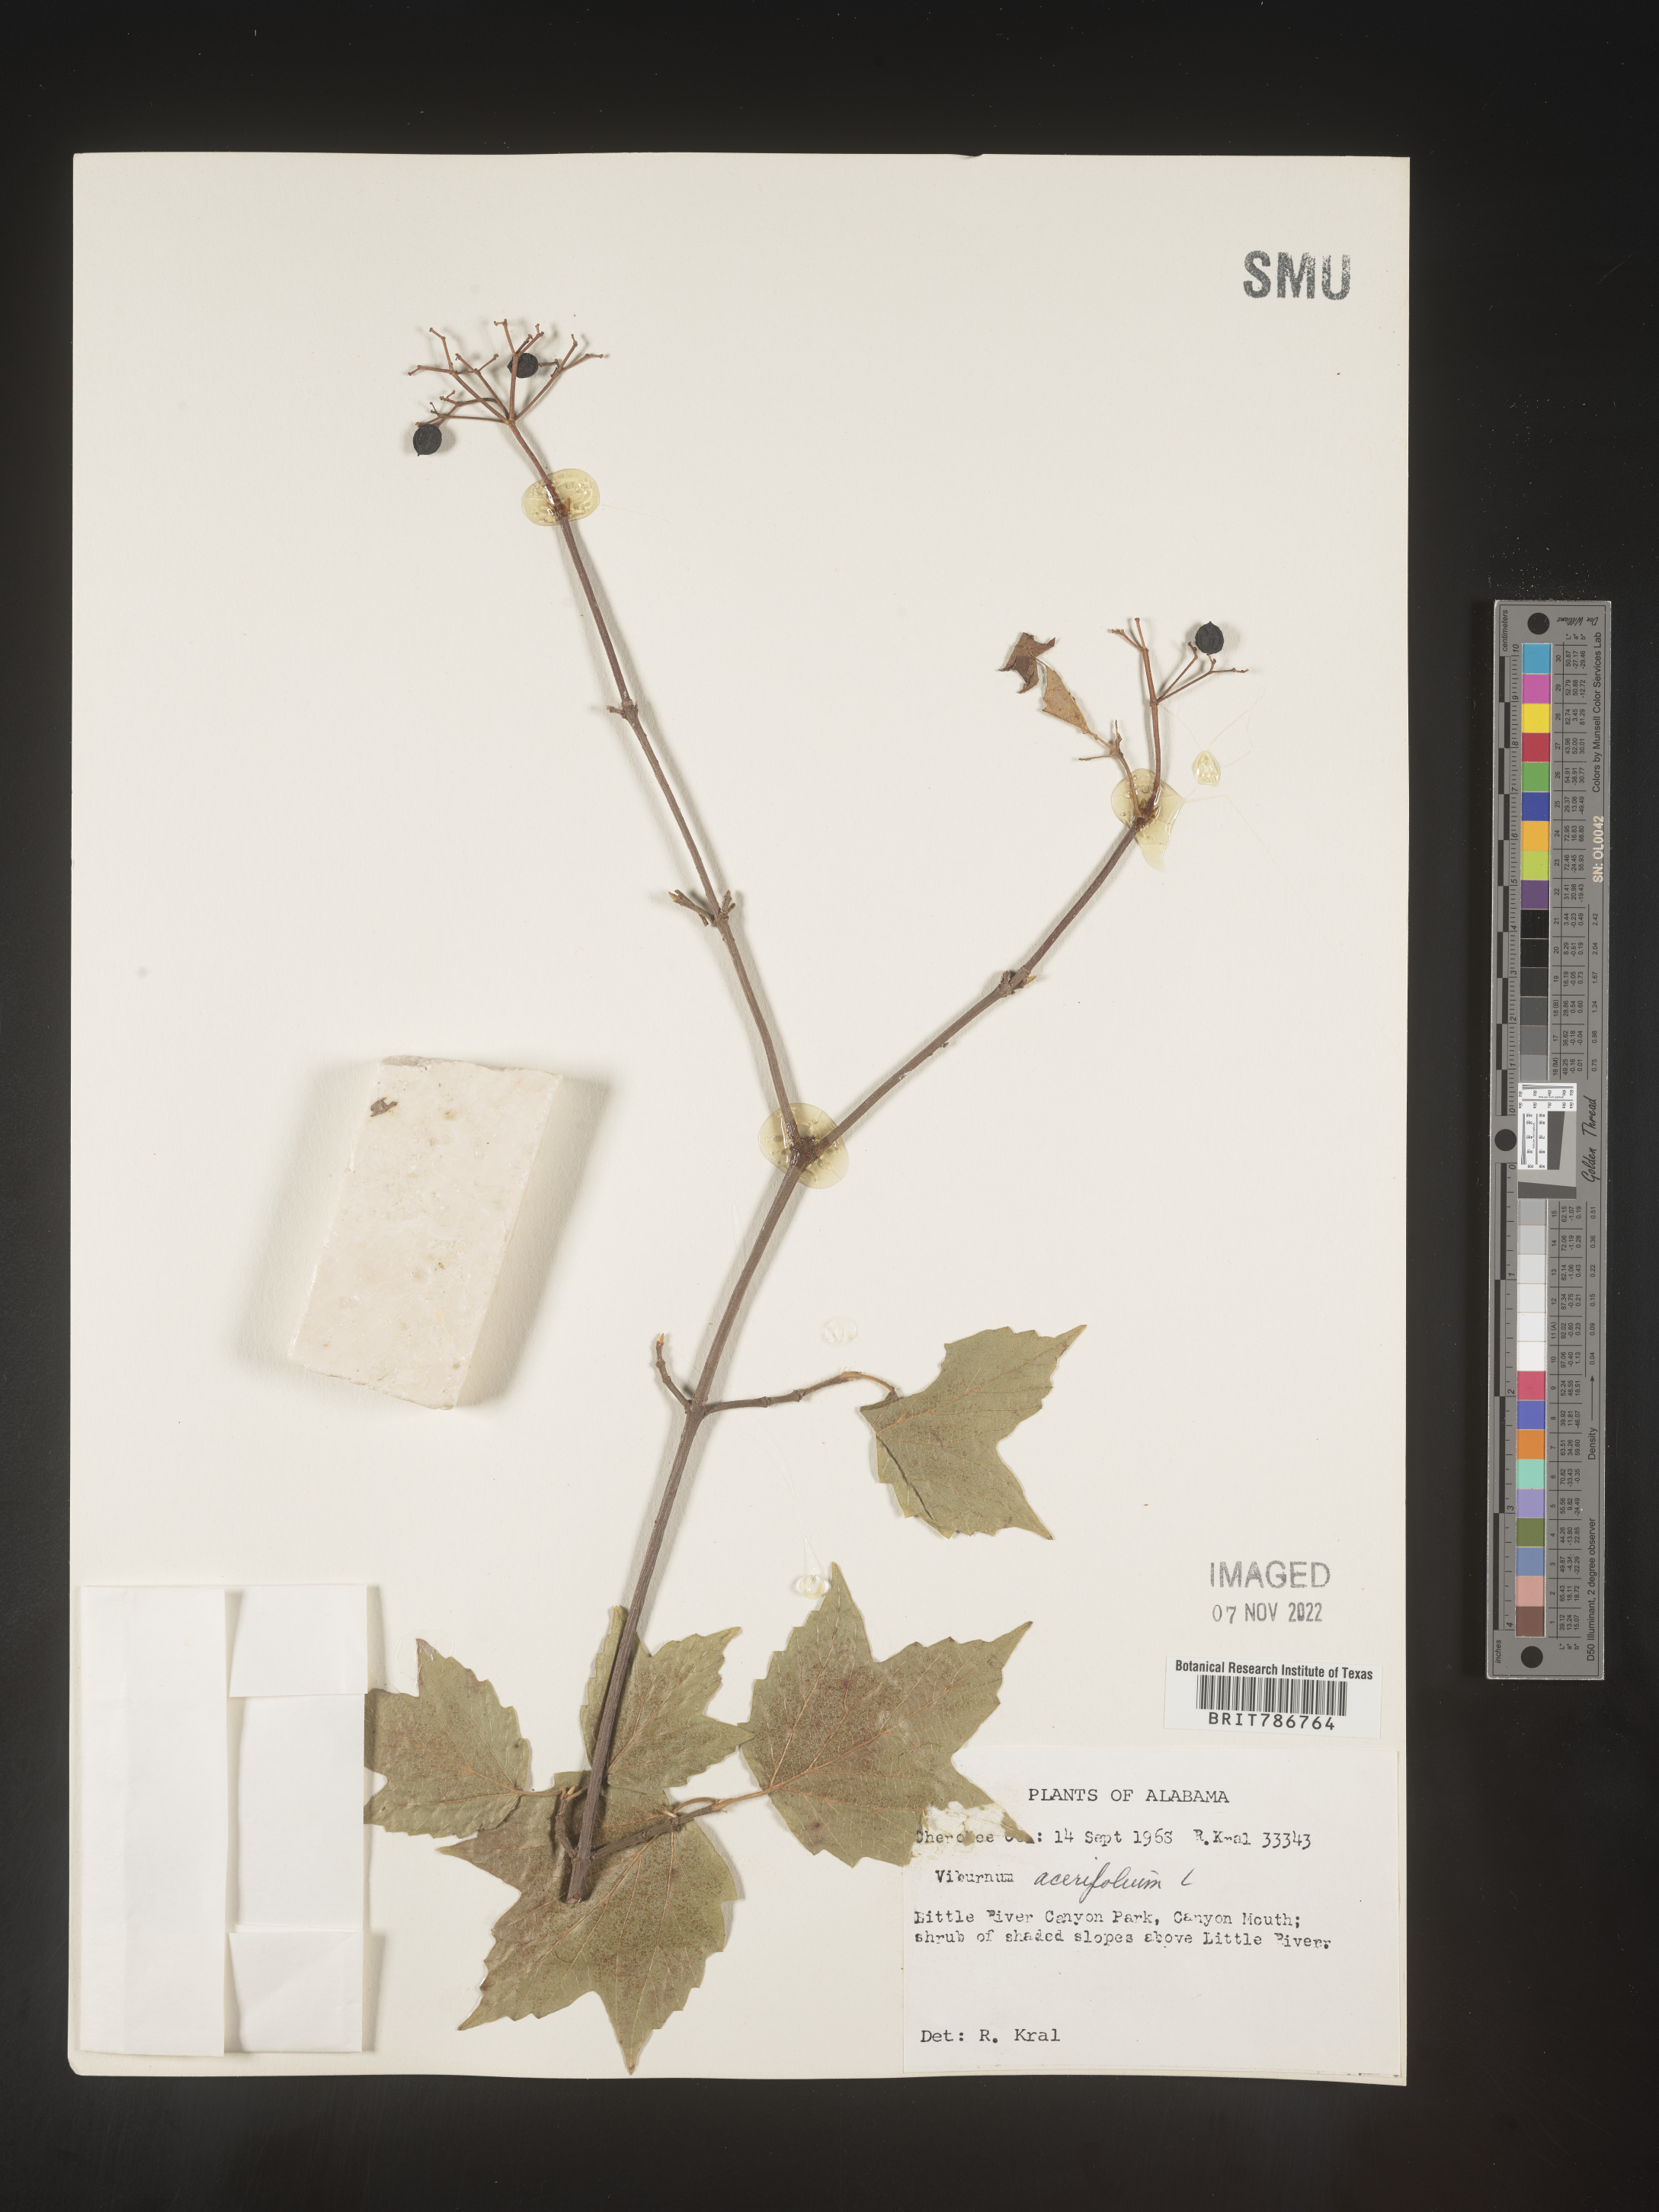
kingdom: Plantae
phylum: Tracheophyta
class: Magnoliopsida
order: Dipsacales
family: Viburnaceae
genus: Viburnum
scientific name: Viburnum acerifolium
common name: Dockmackie
